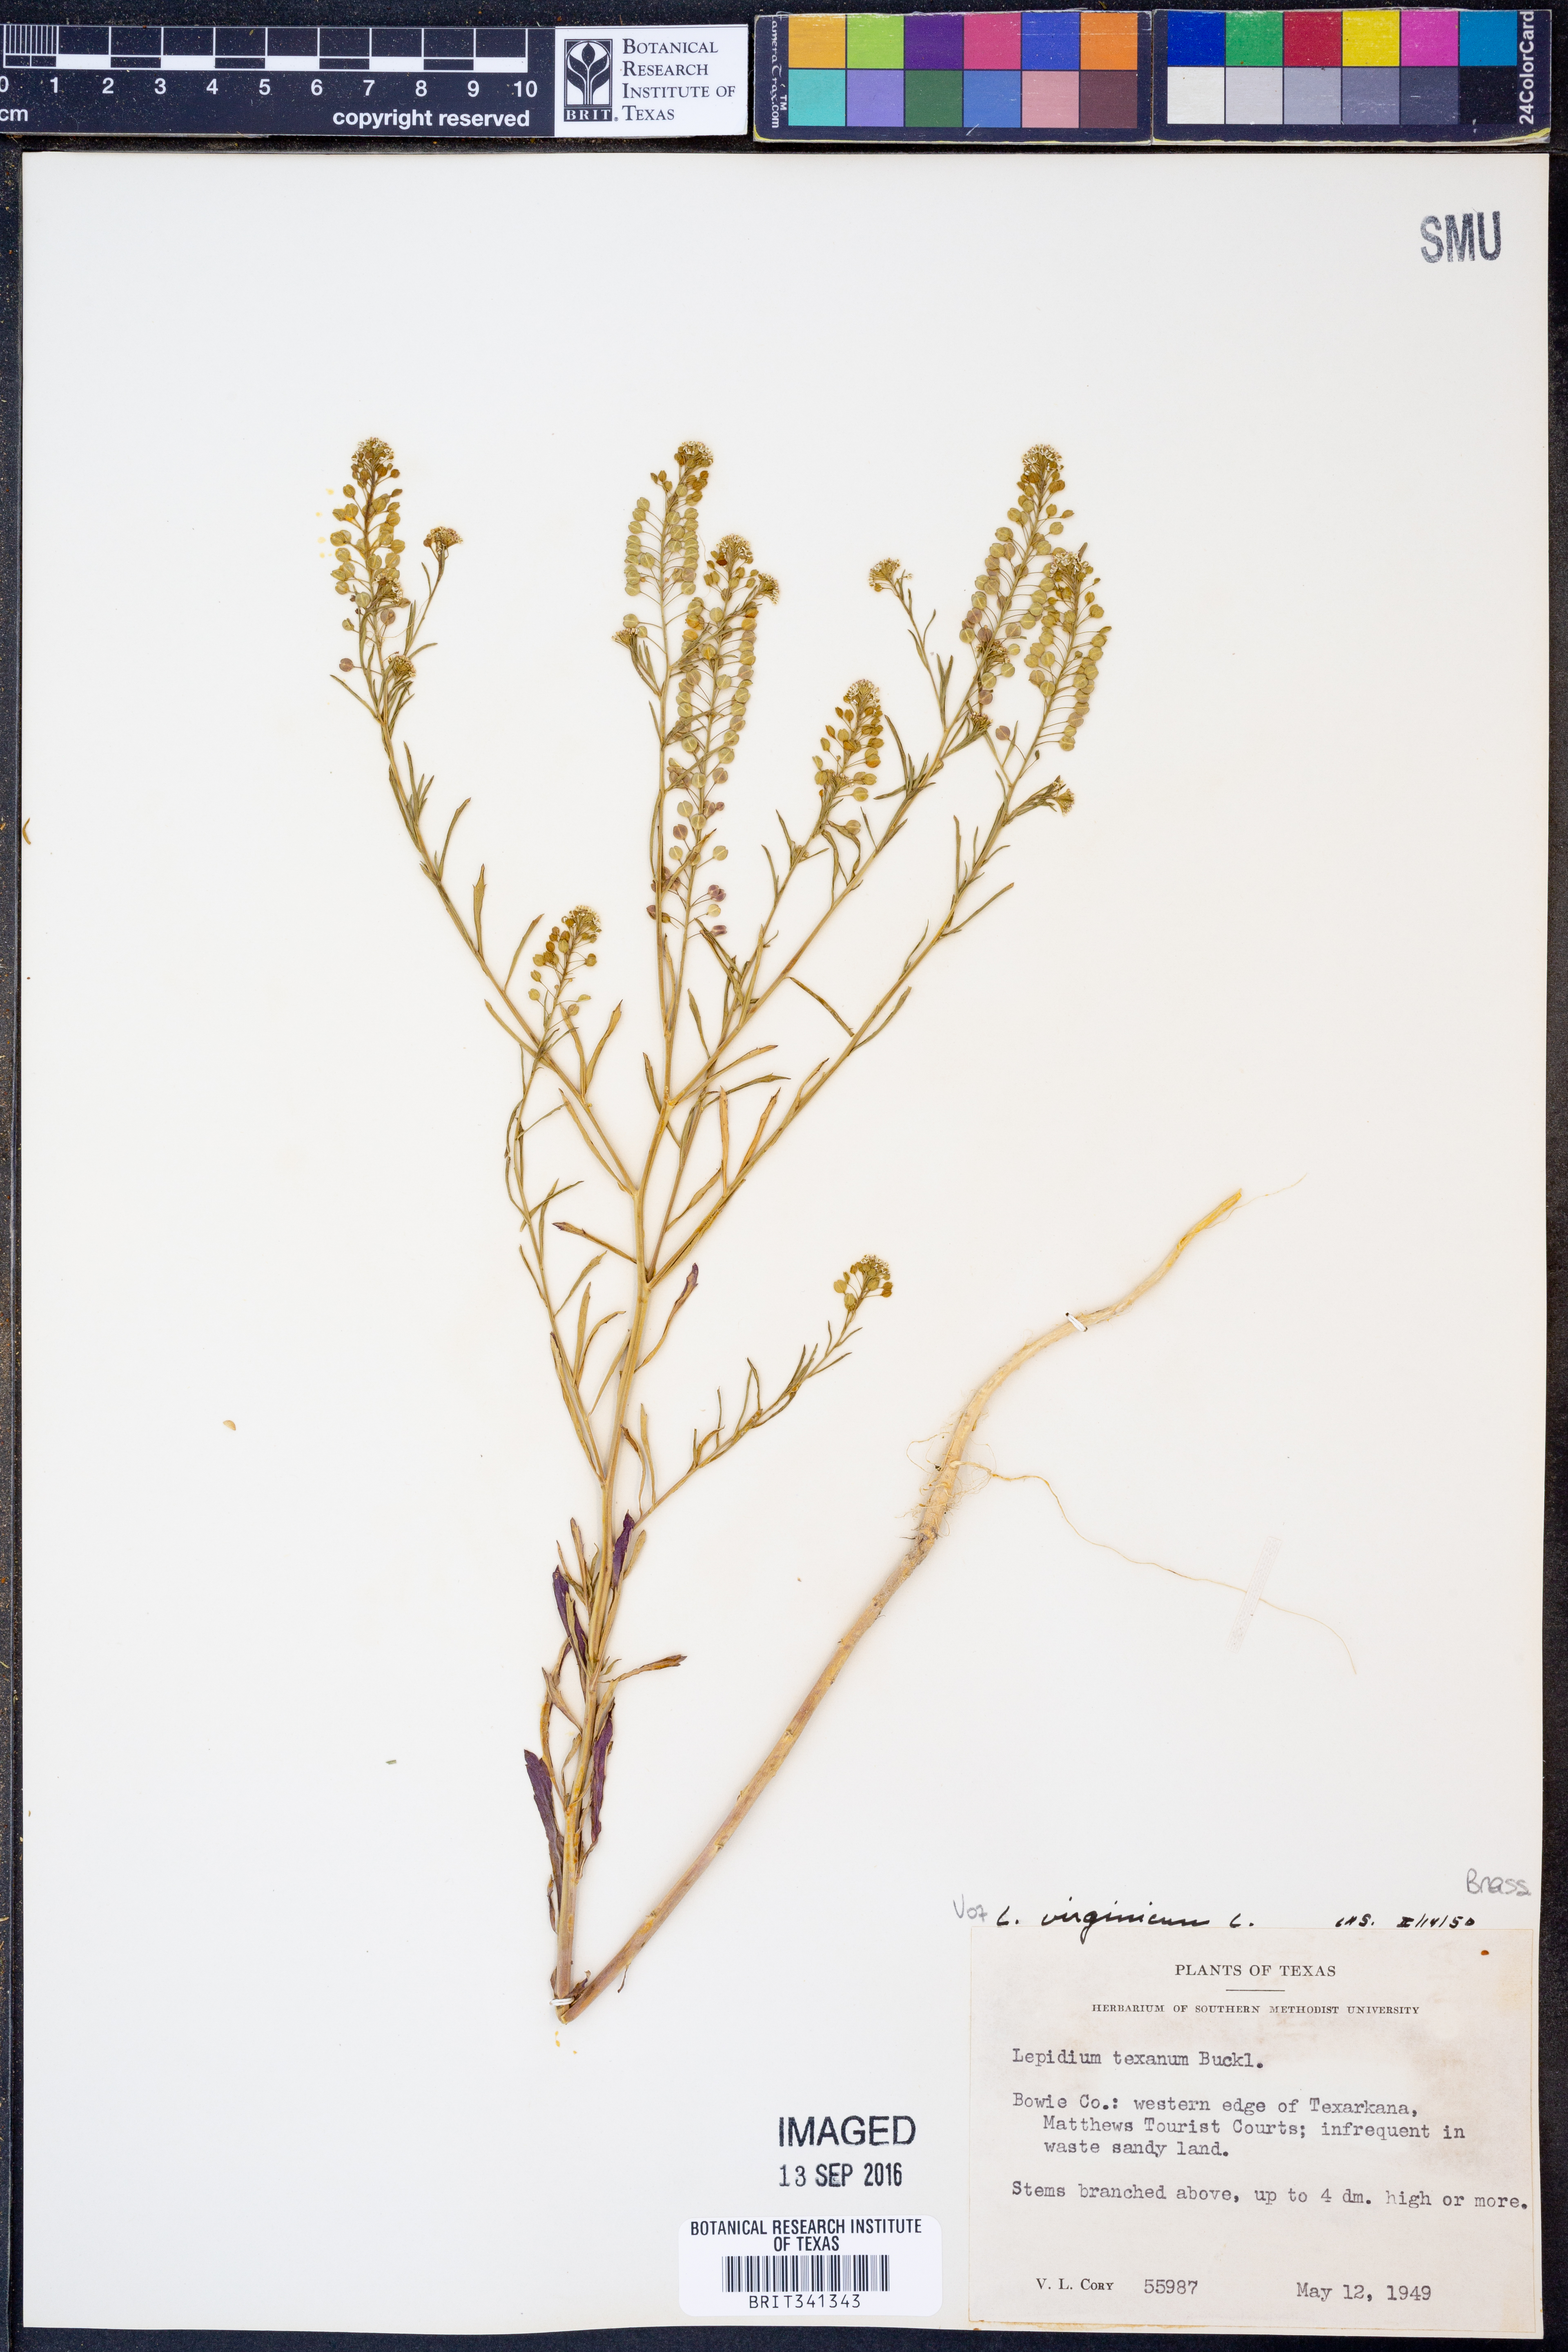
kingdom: Plantae
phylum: Tracheophyta
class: Magnoliopsida
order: Brassicales
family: Brassicaceae
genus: Lepidium
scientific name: Lepidium virginicum
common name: Least pepperwort
